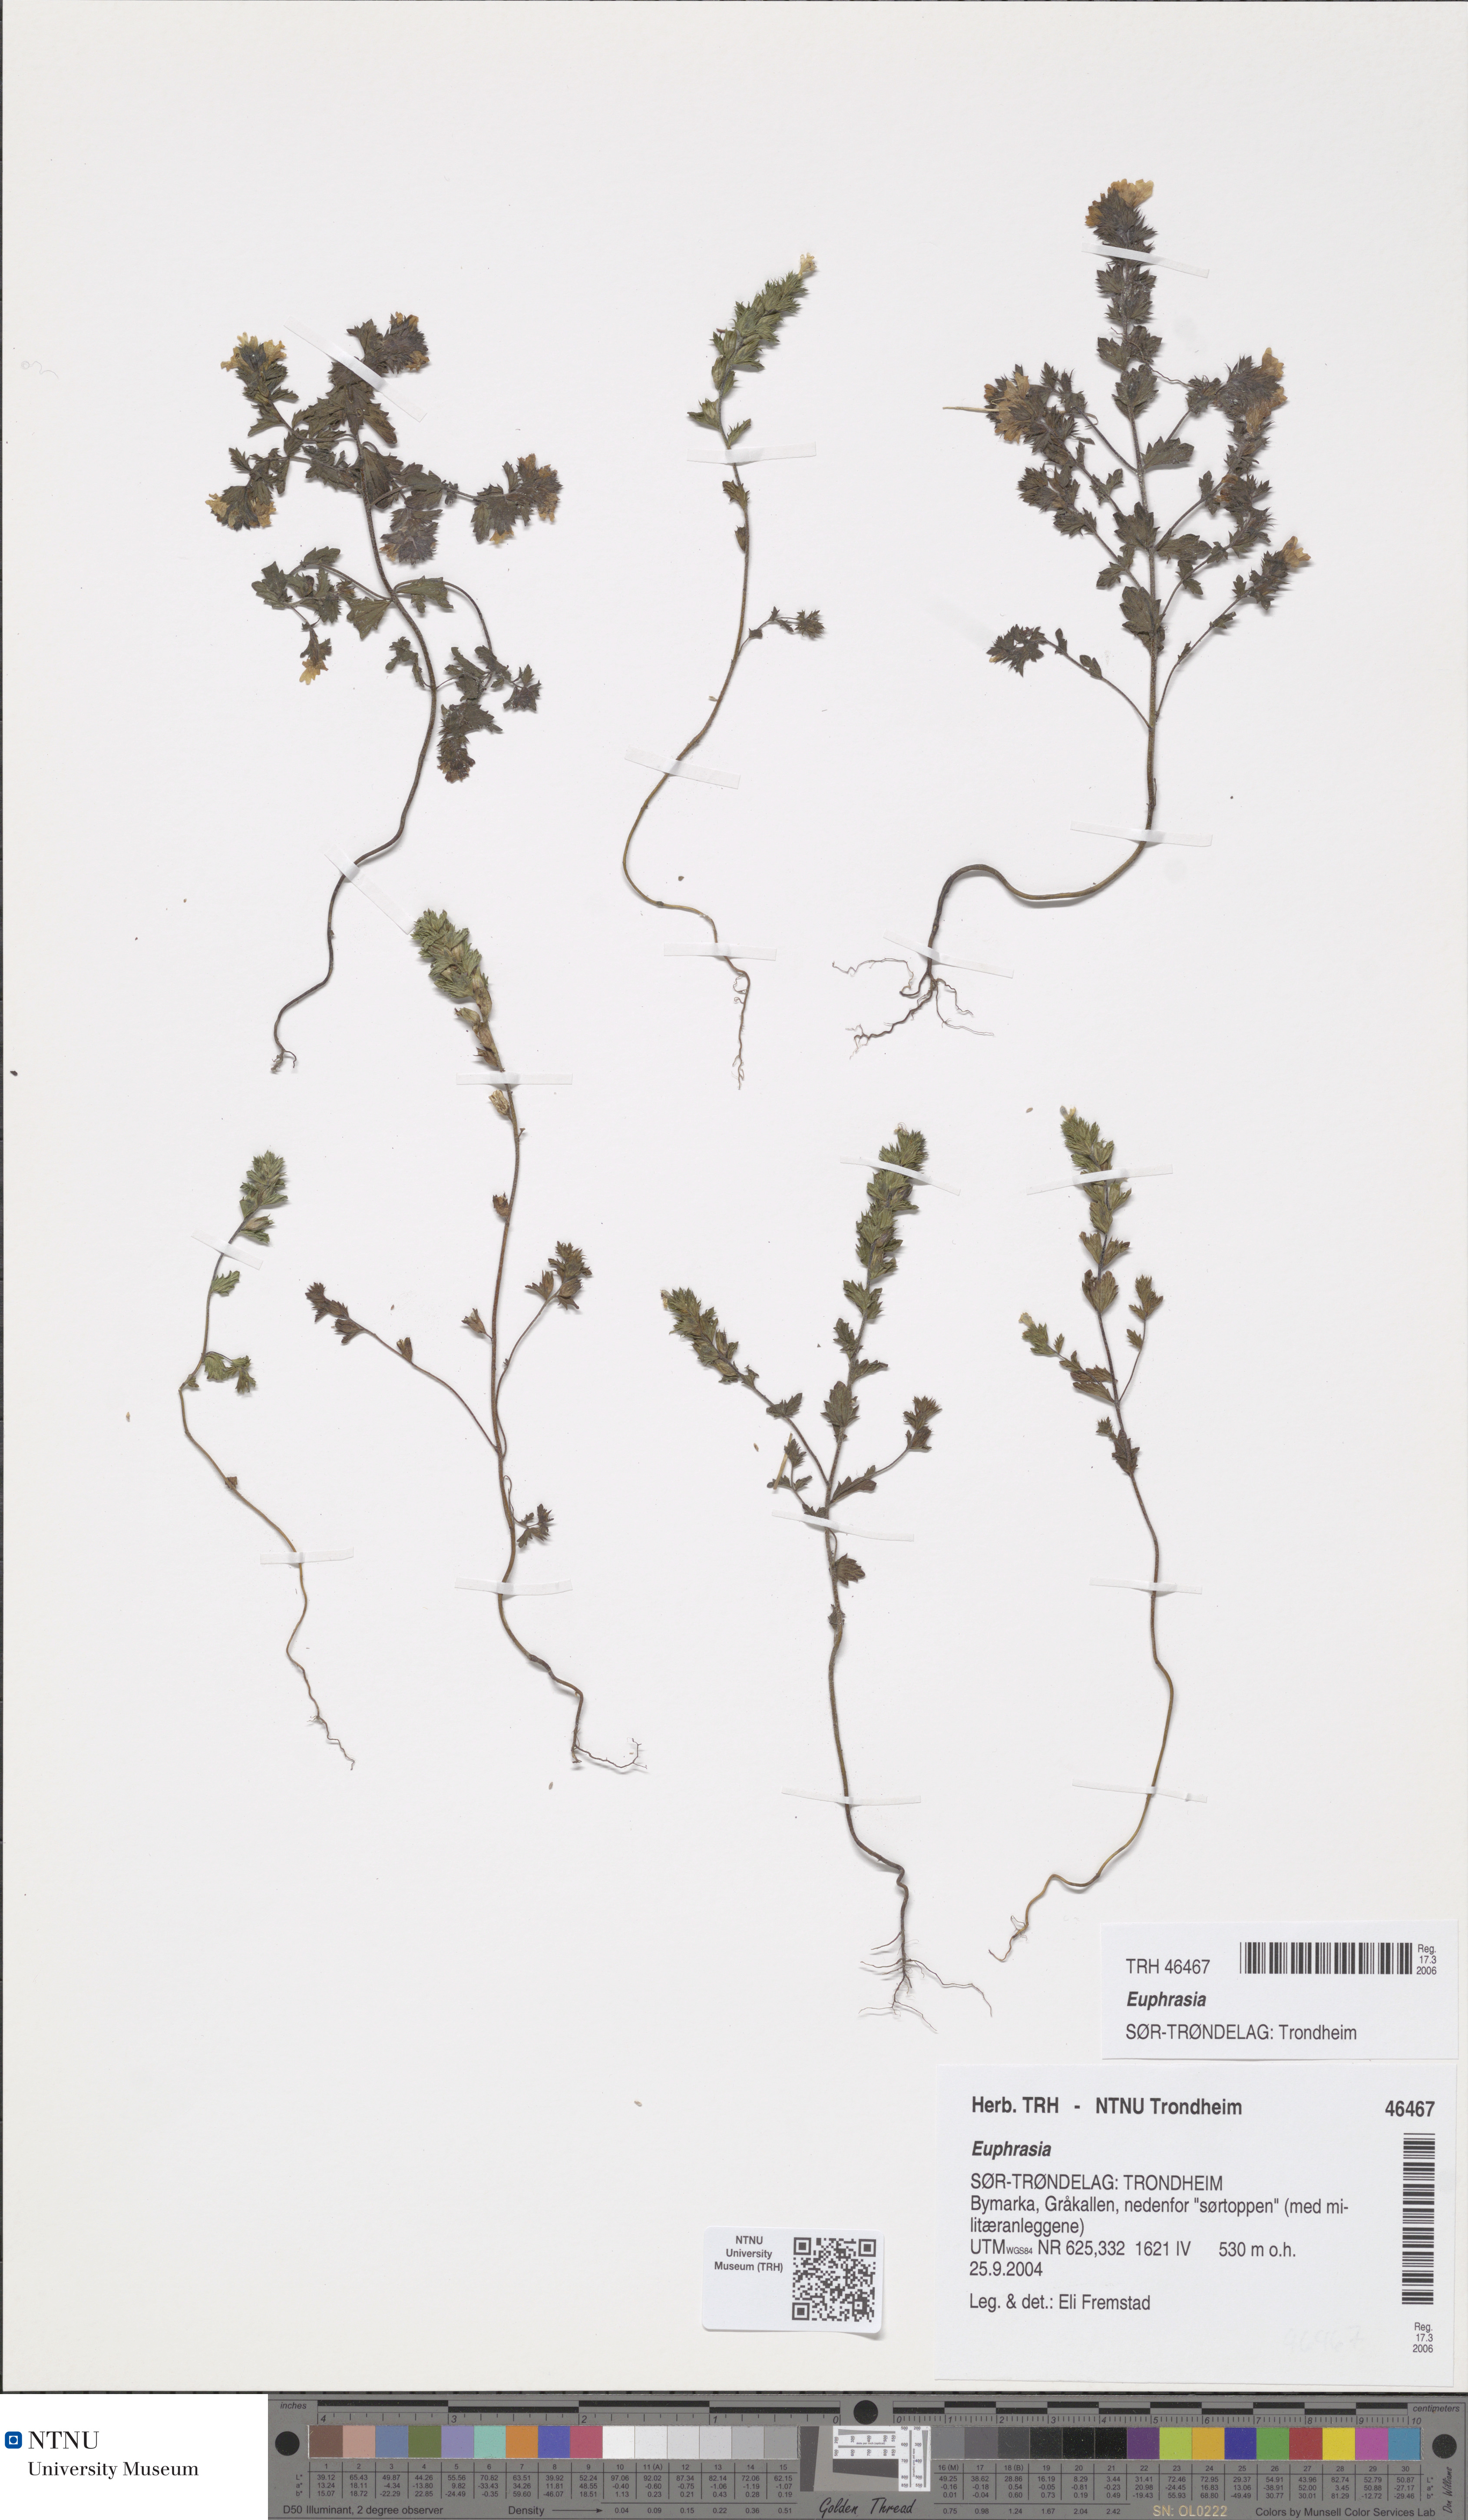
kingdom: Plantae
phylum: Tracheophyta
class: Magnoliopsida
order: Lamiales
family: Orobanchaceae
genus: Euphrasia
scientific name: Euphrasia
